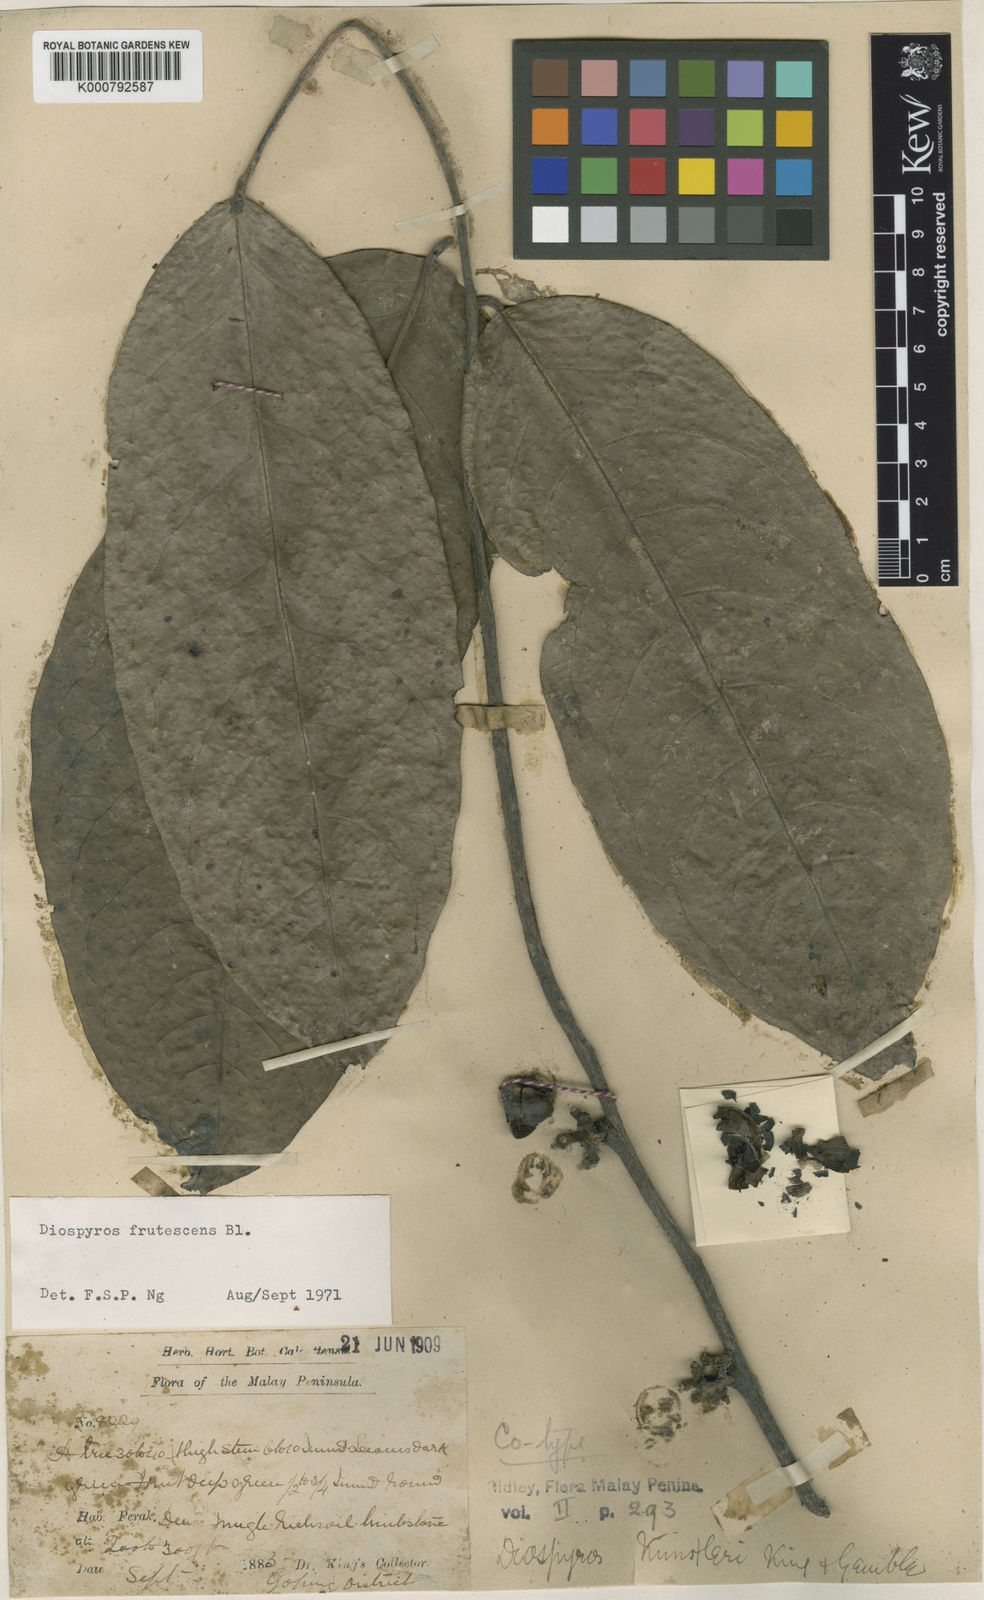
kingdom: Plantae
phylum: Tracheophyta
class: Magnoliopsida
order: Ericales
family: Ebenaceae
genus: Diospyros
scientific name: Diospyros frutescens
